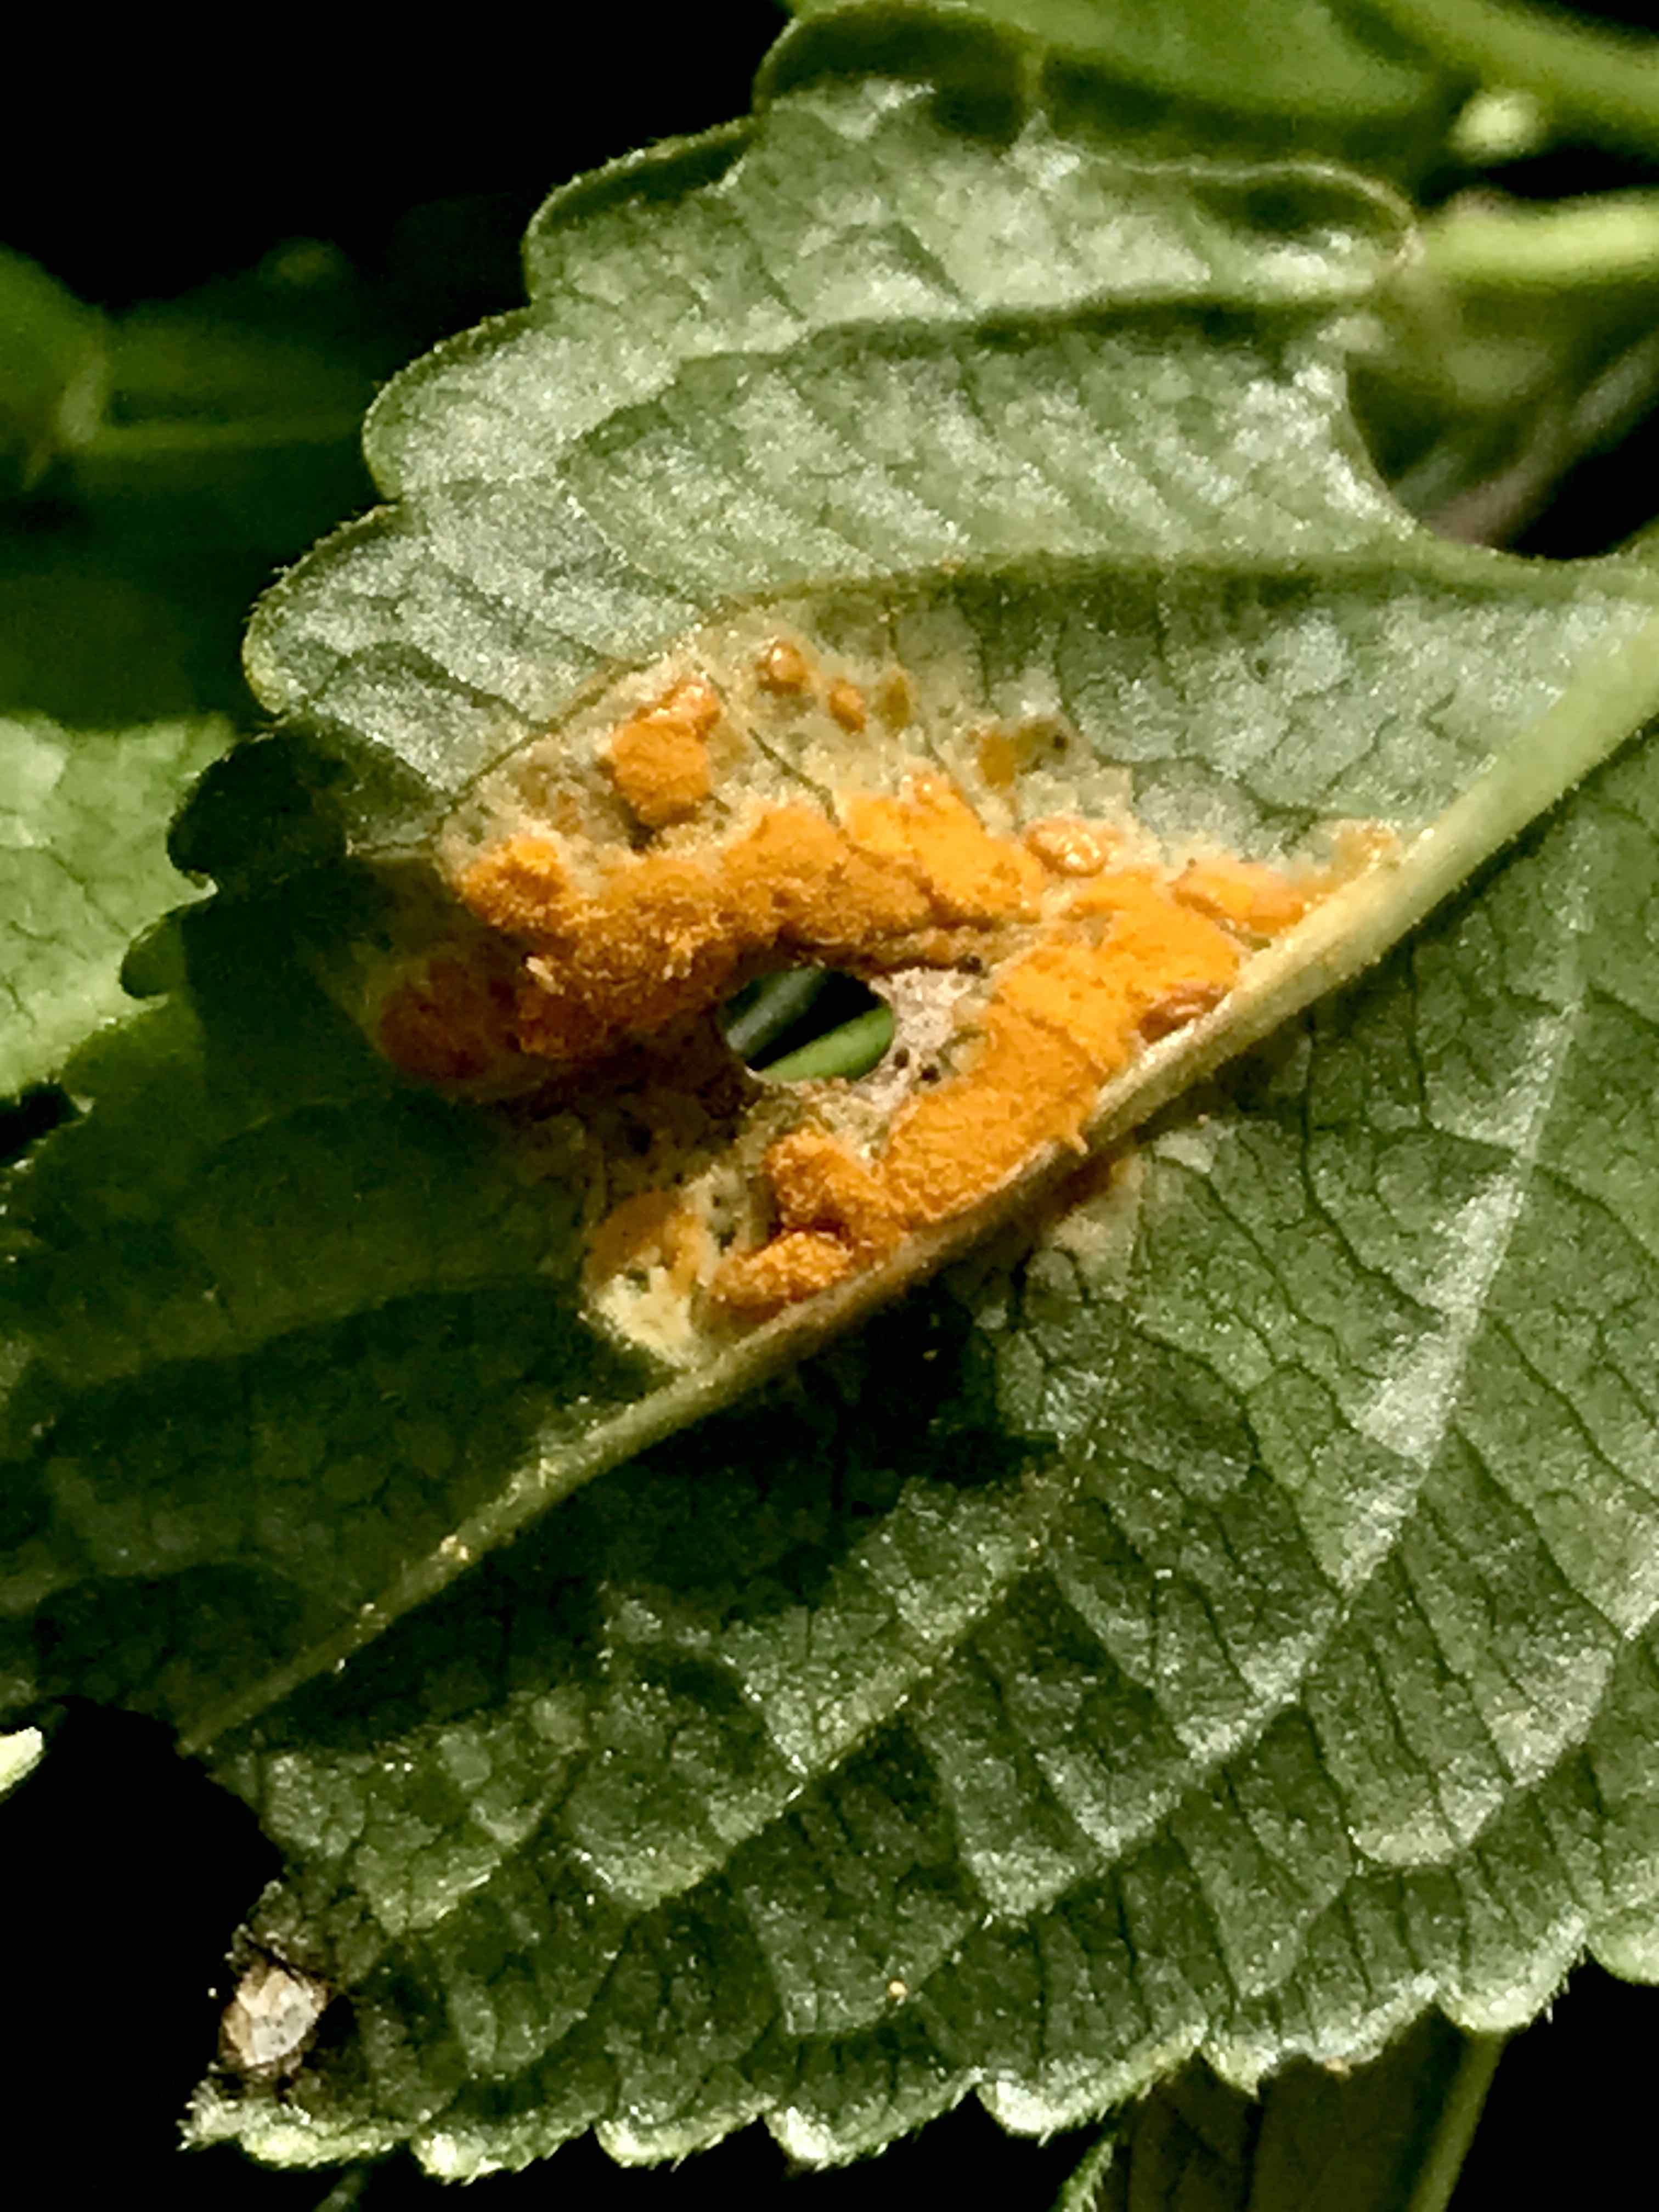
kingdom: Fungi
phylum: Basidiomycota
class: Pucciniomycetes
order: Pucciniales
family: Melampsoraceae
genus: Melampsora
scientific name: Melampsora populnea
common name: poppel-skorperust
